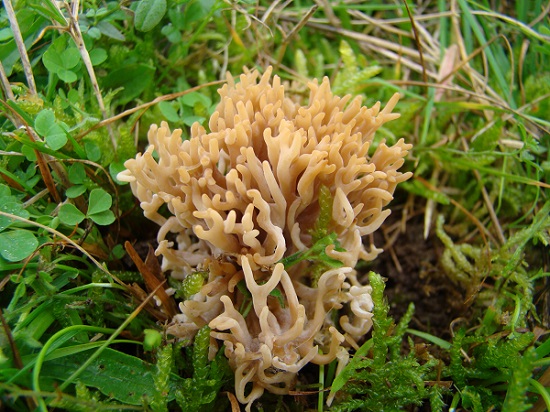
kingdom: Fungi
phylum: Basidiomycota
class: Agaricomycetes
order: Agaricales
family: Clavariaceae
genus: Clavulinopsis
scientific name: Clavulinopsis umbrinella
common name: gulgrå køllesvamp
